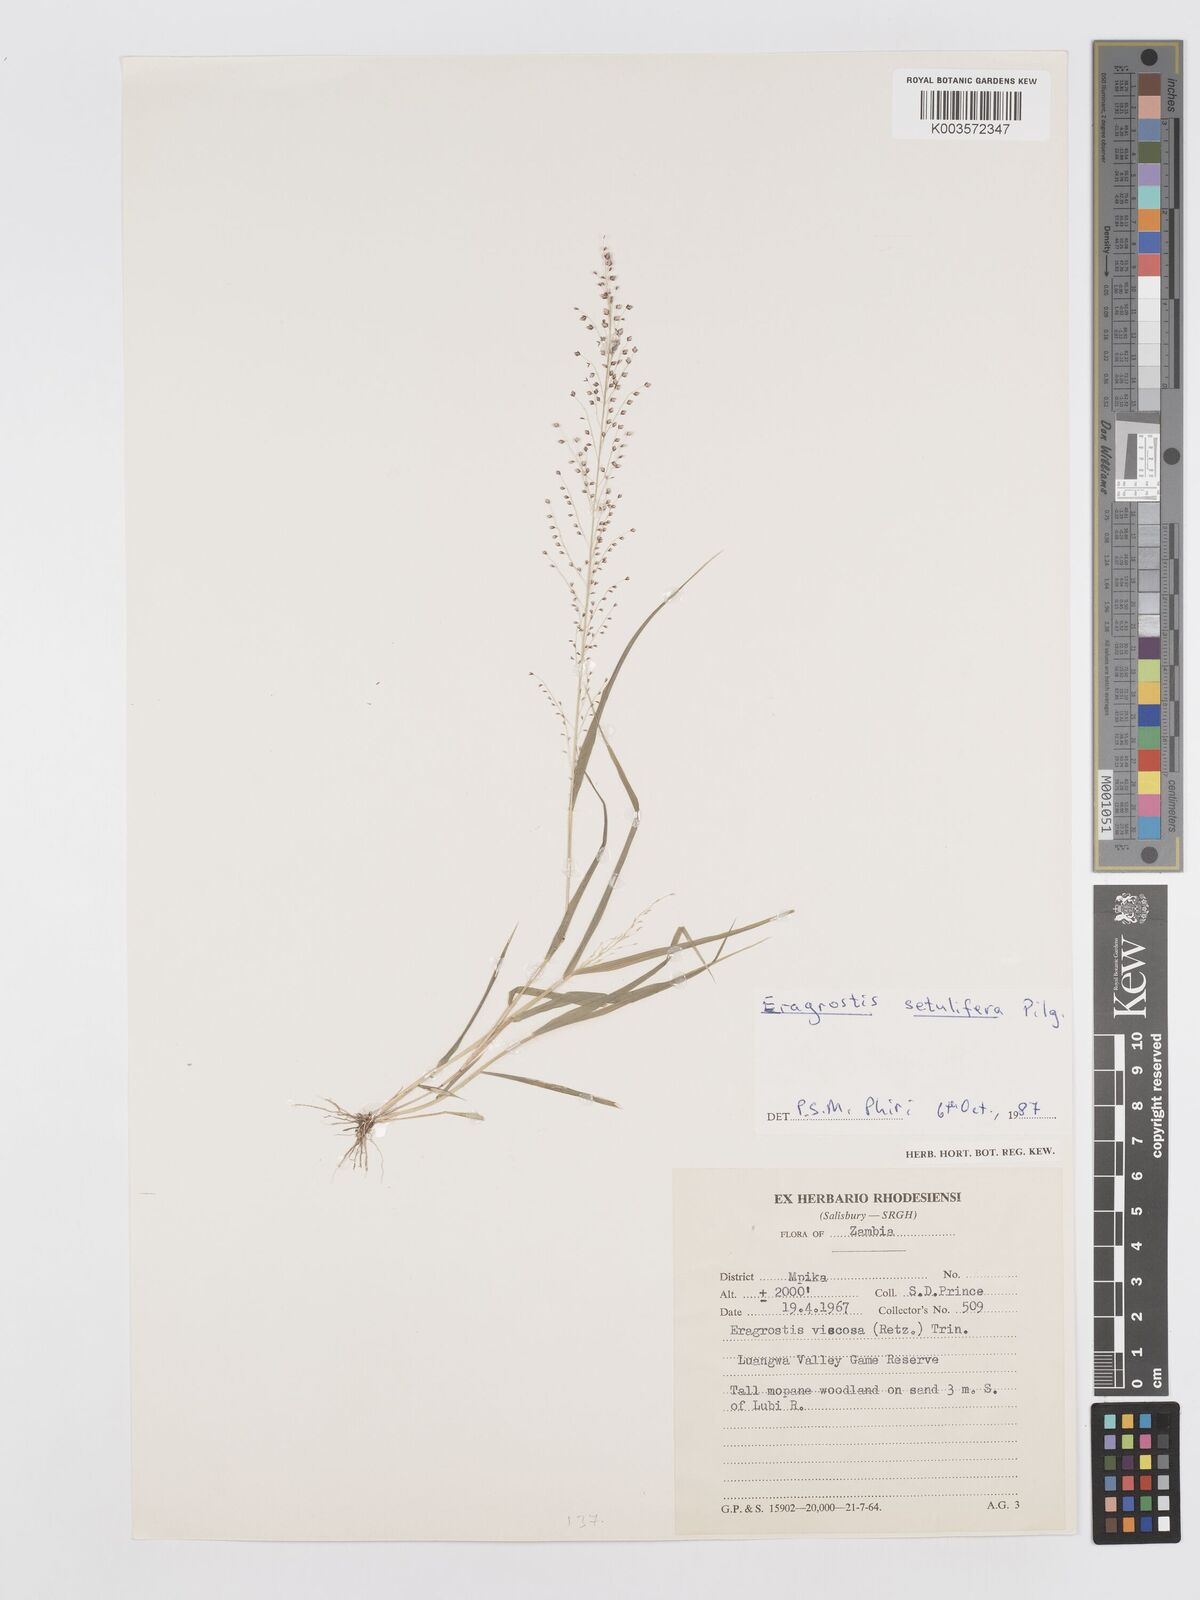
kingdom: Plantae
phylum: Tracheophyta
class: Liliopsida
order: Poales
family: Poaceae
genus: Eragrostis
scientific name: Eragrostis setulifera
